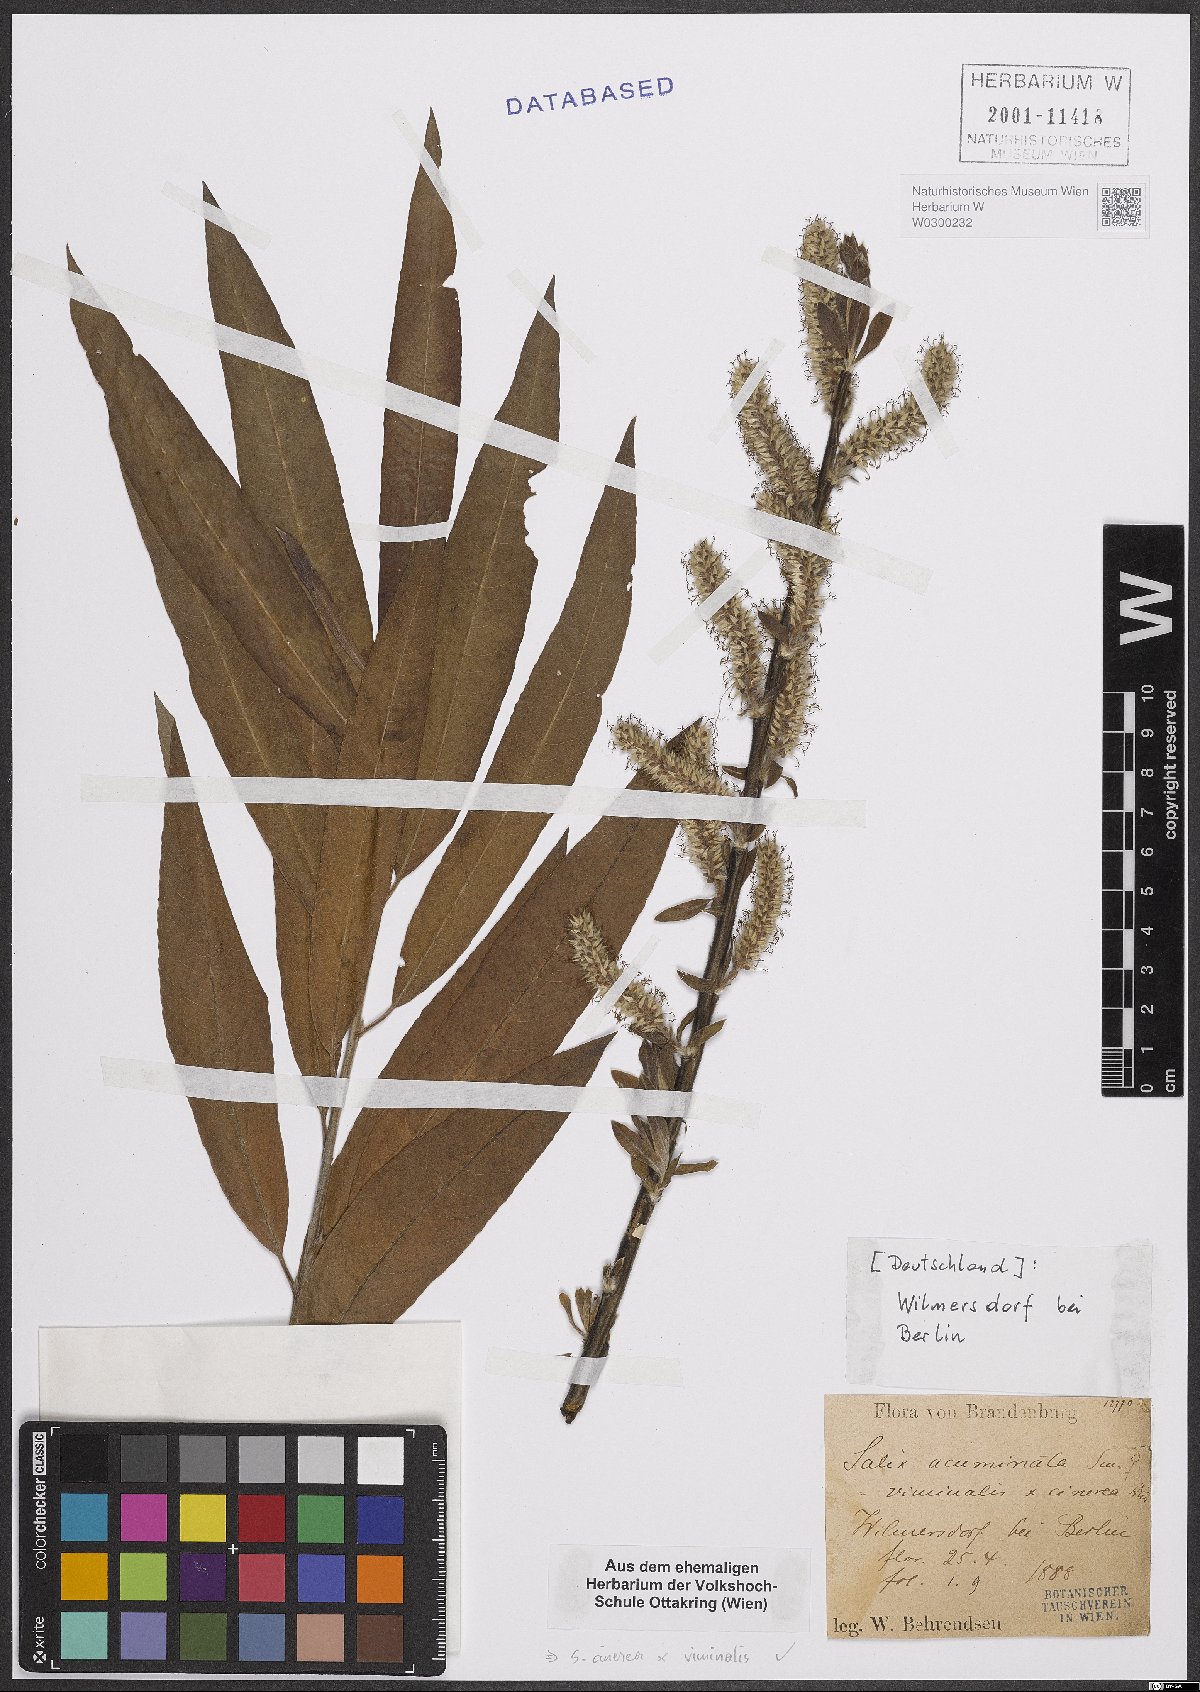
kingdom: Plantae
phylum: Tracheophyta
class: Magnoliopsida
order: Malpighiales
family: Salicaceae
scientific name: Salicaceae
